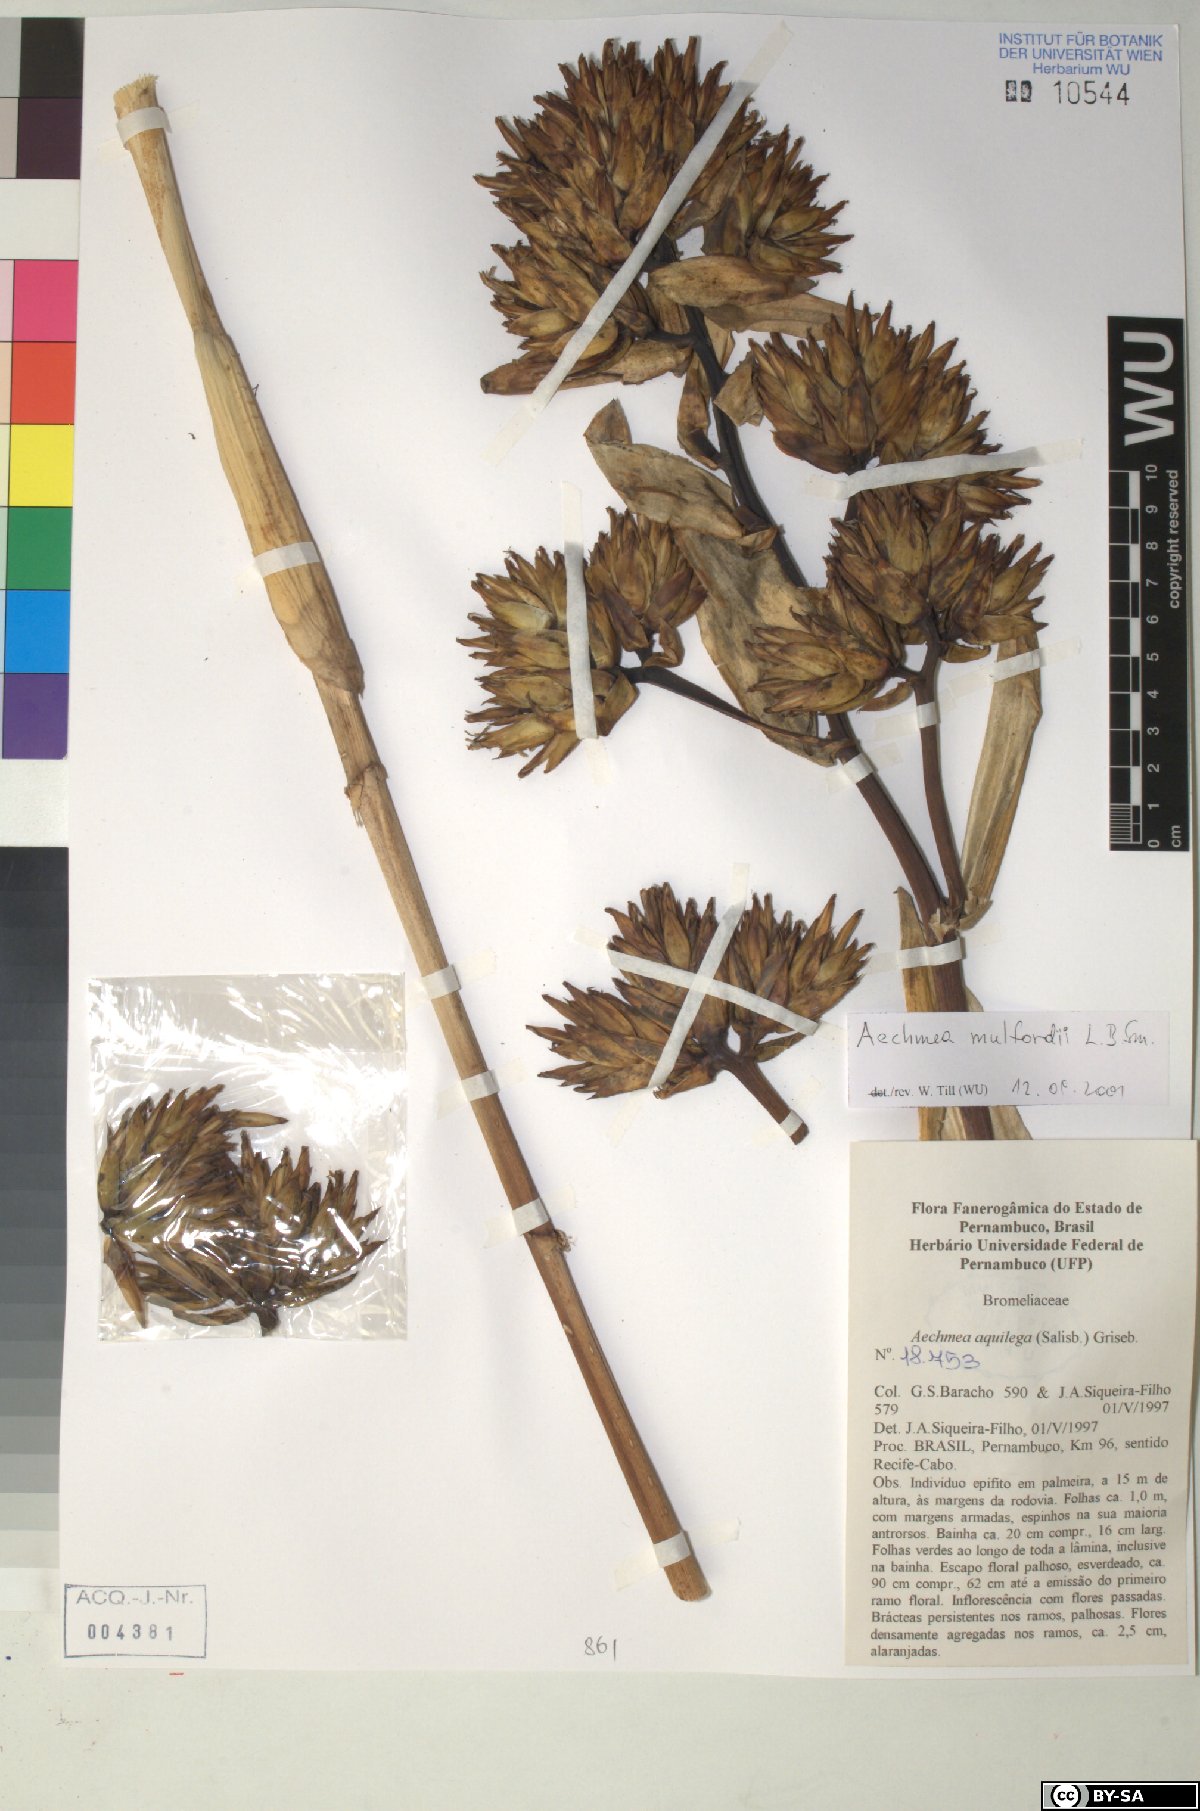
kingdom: Plantae
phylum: Tracheophyta
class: Liliopsida
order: Poales
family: Bromeliaceae
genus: Aechmea
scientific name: Aechmea aquilega
